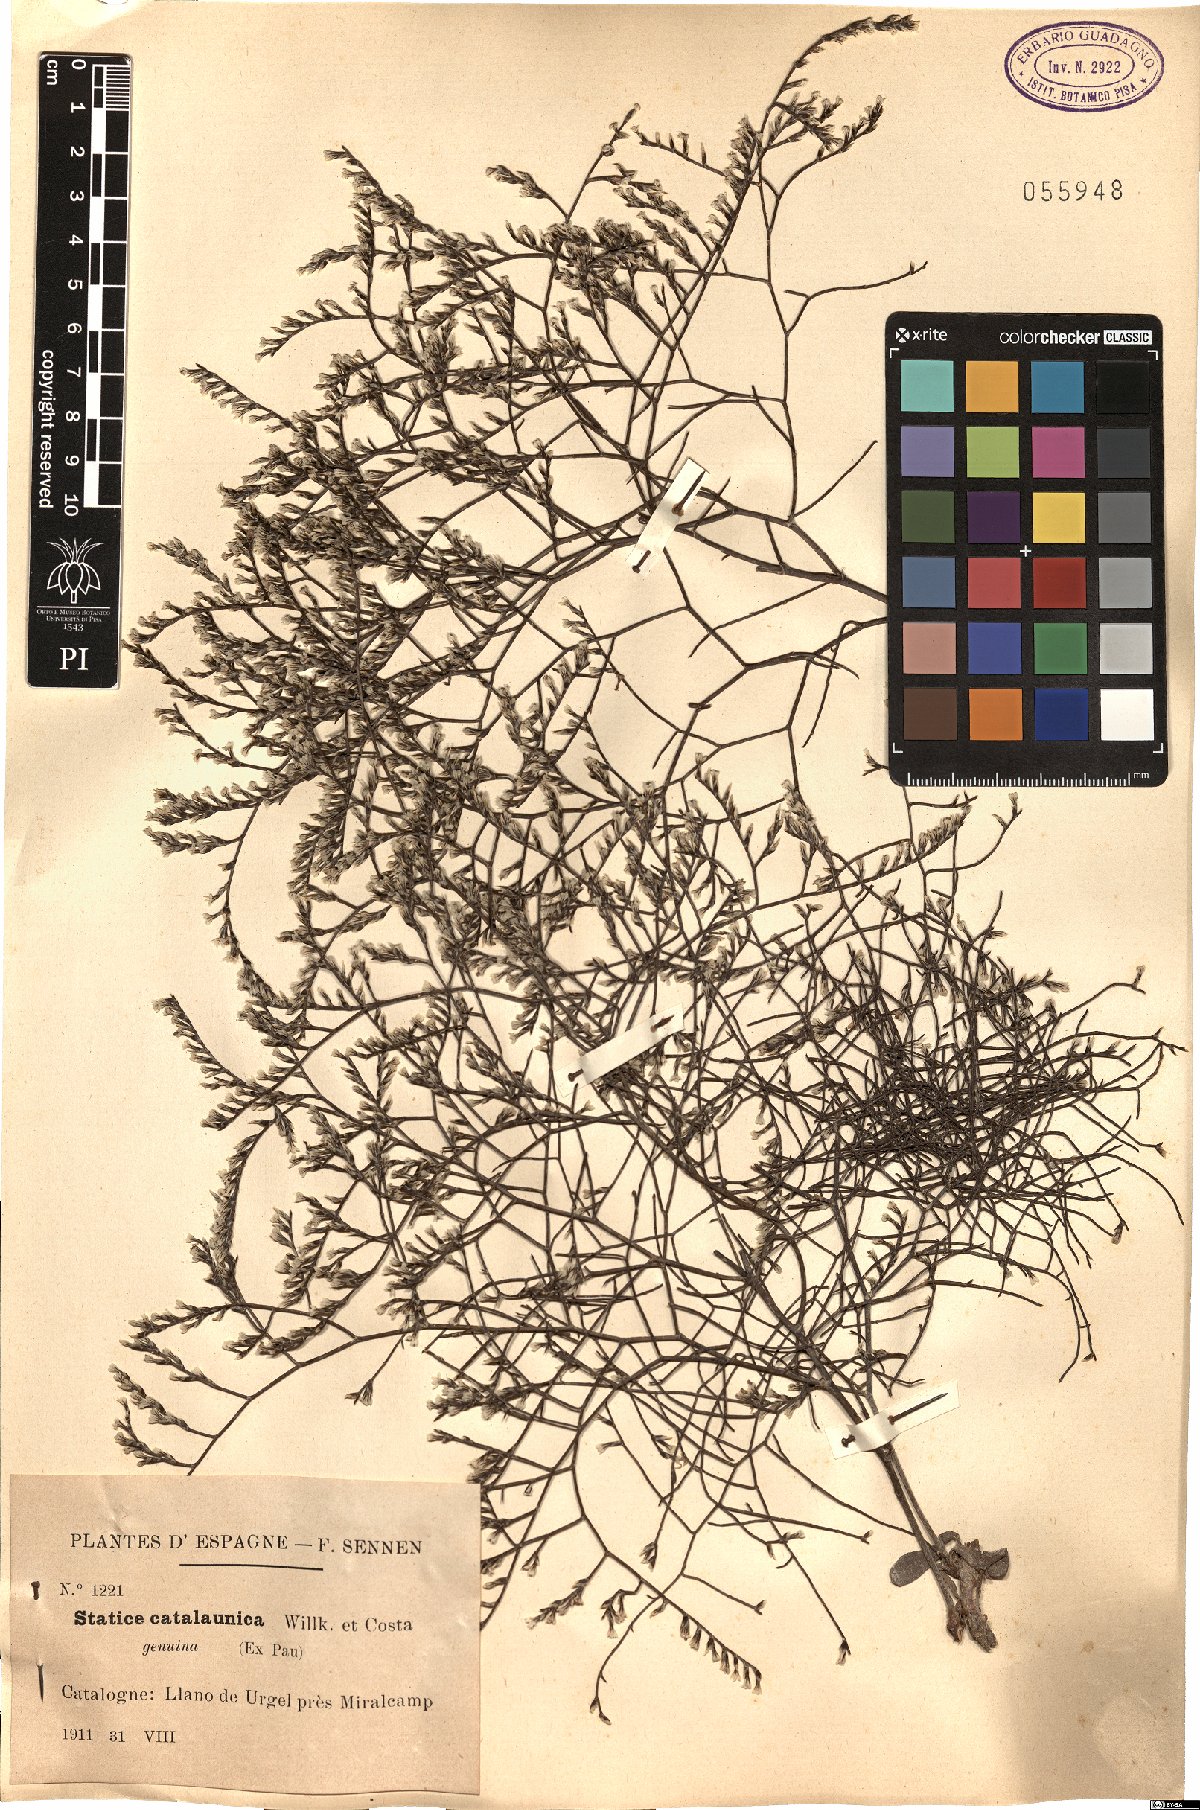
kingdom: Plantae
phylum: Tracheophyta
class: Magnoliopsida
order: Caryophyllales
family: Plumbaginaceae
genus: Limonium
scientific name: Limonium catalaunicum
